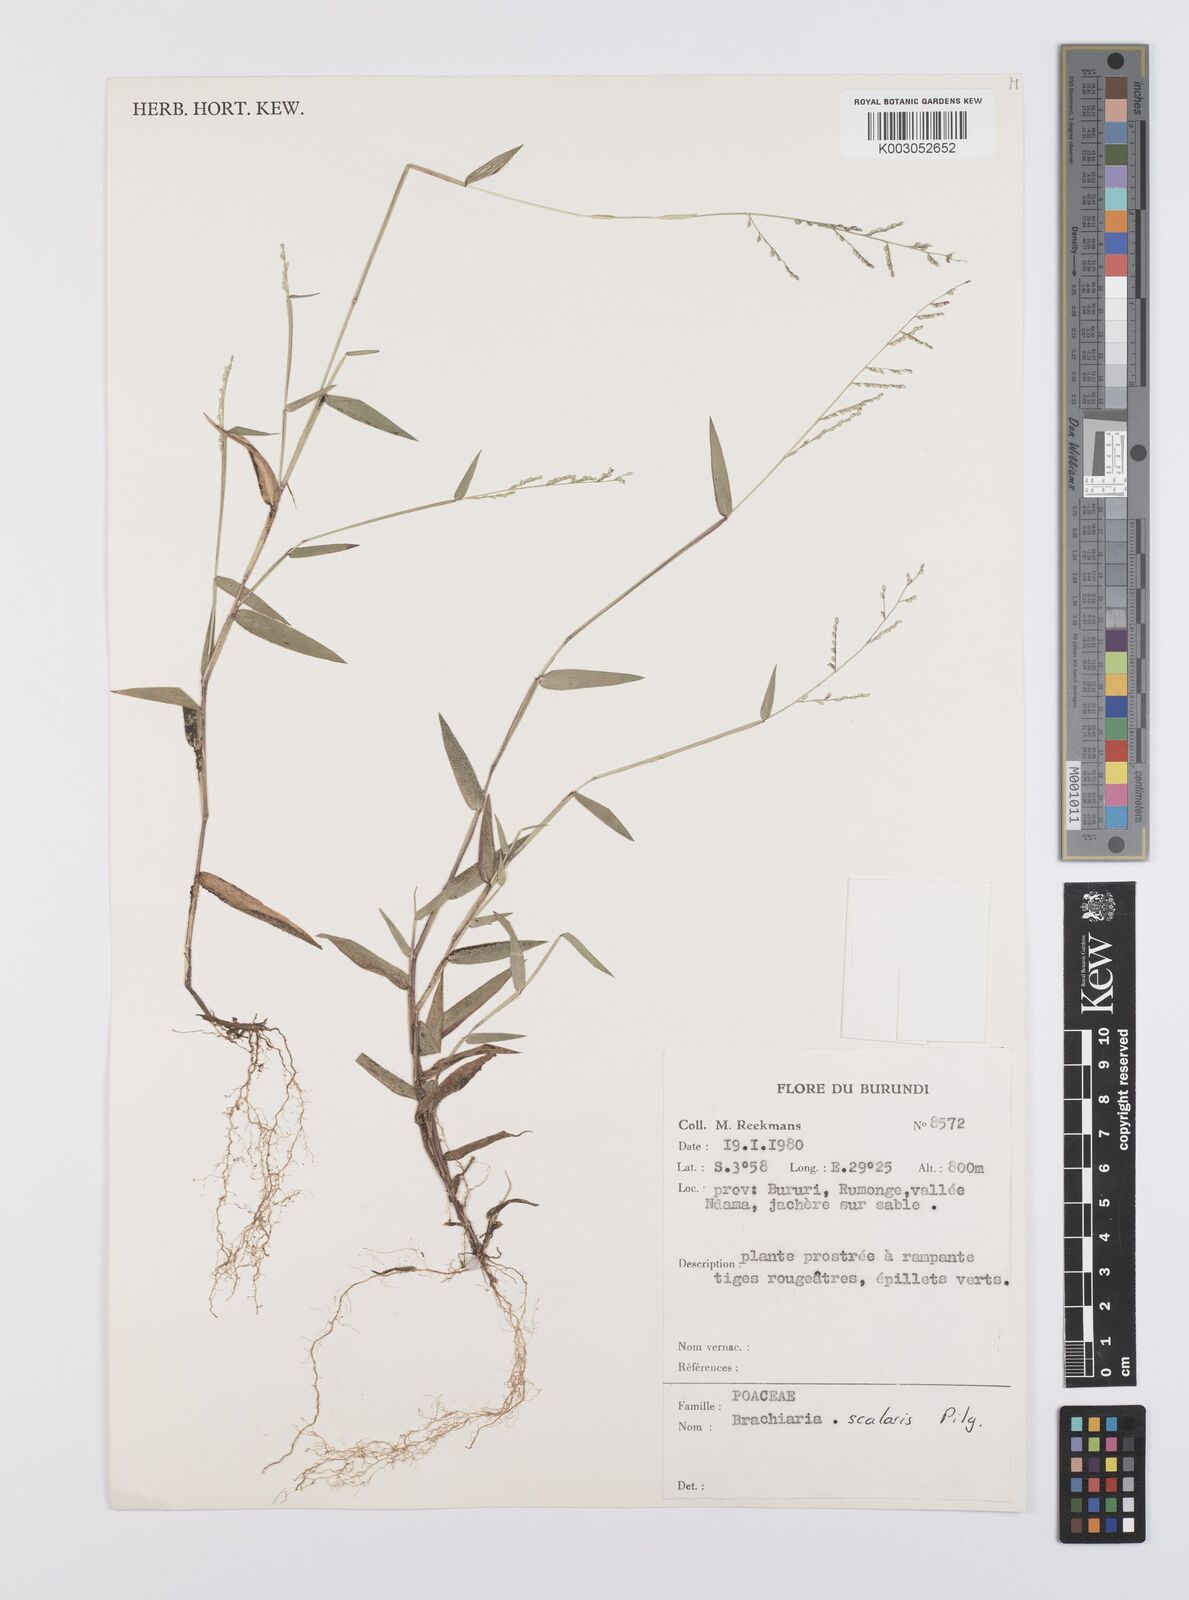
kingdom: Plantae
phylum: Tracheophyta
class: Liliopsida
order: Poales
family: Poaceae
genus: Urochloa
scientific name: Urochloa comata
